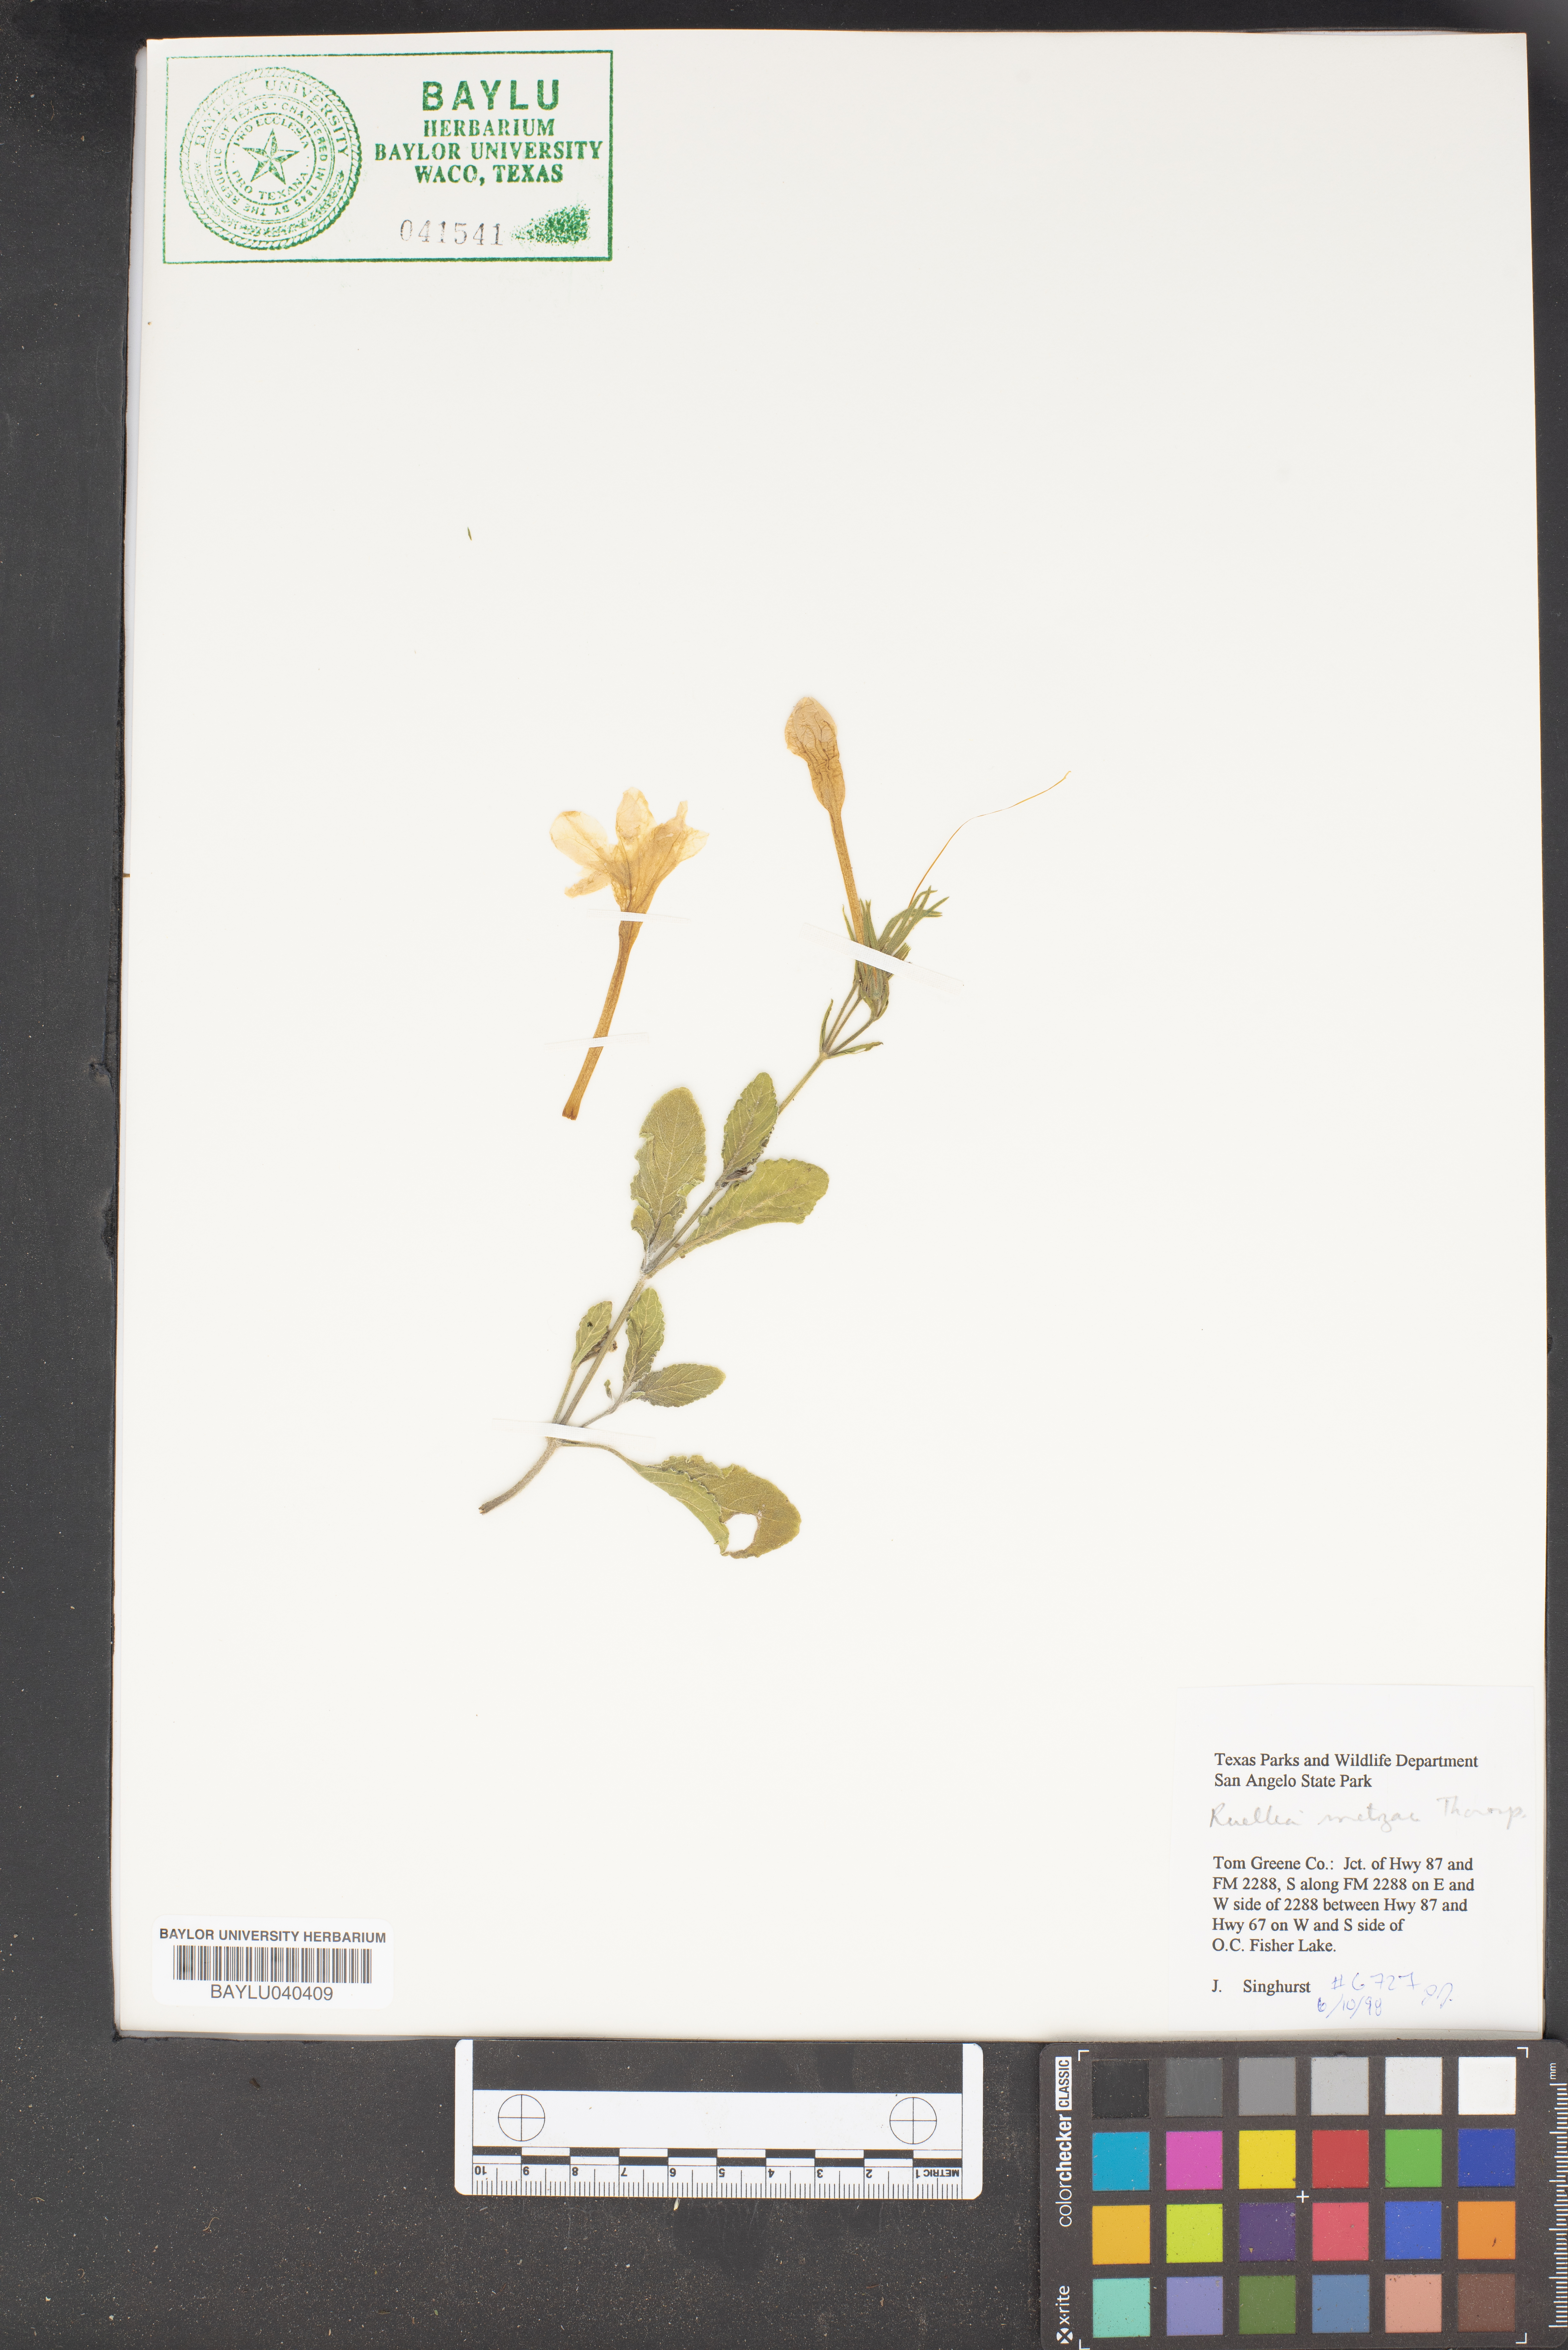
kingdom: Plantae
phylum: Tracheophyta
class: Magnoliopsida
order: Lamiales
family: Acanthaceae
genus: Ruellia
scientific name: Ruellia metzae
